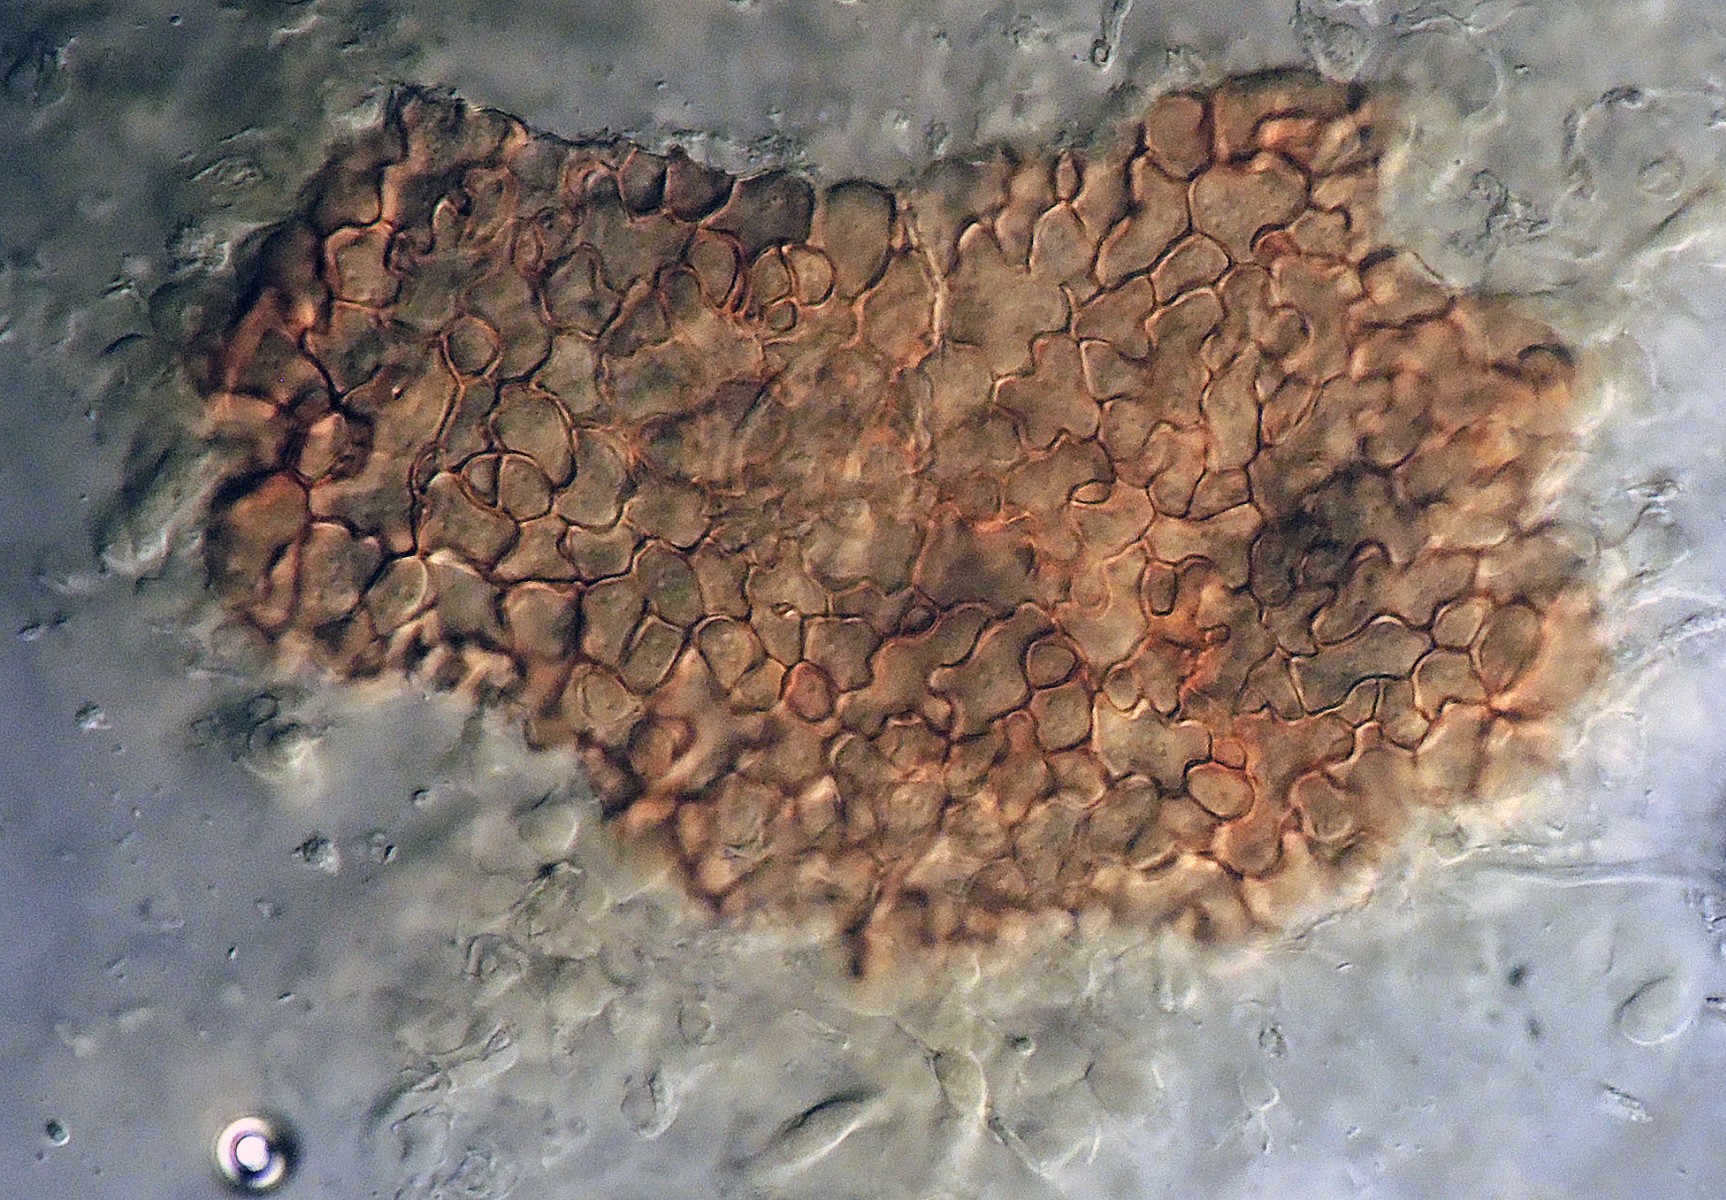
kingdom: Fungi
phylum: Basidiomycota
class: Agaricomycetes
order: Agaricales
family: Typhulaceae
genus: Typhula
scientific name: Typhula trifolii
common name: kløver-trådkølle
